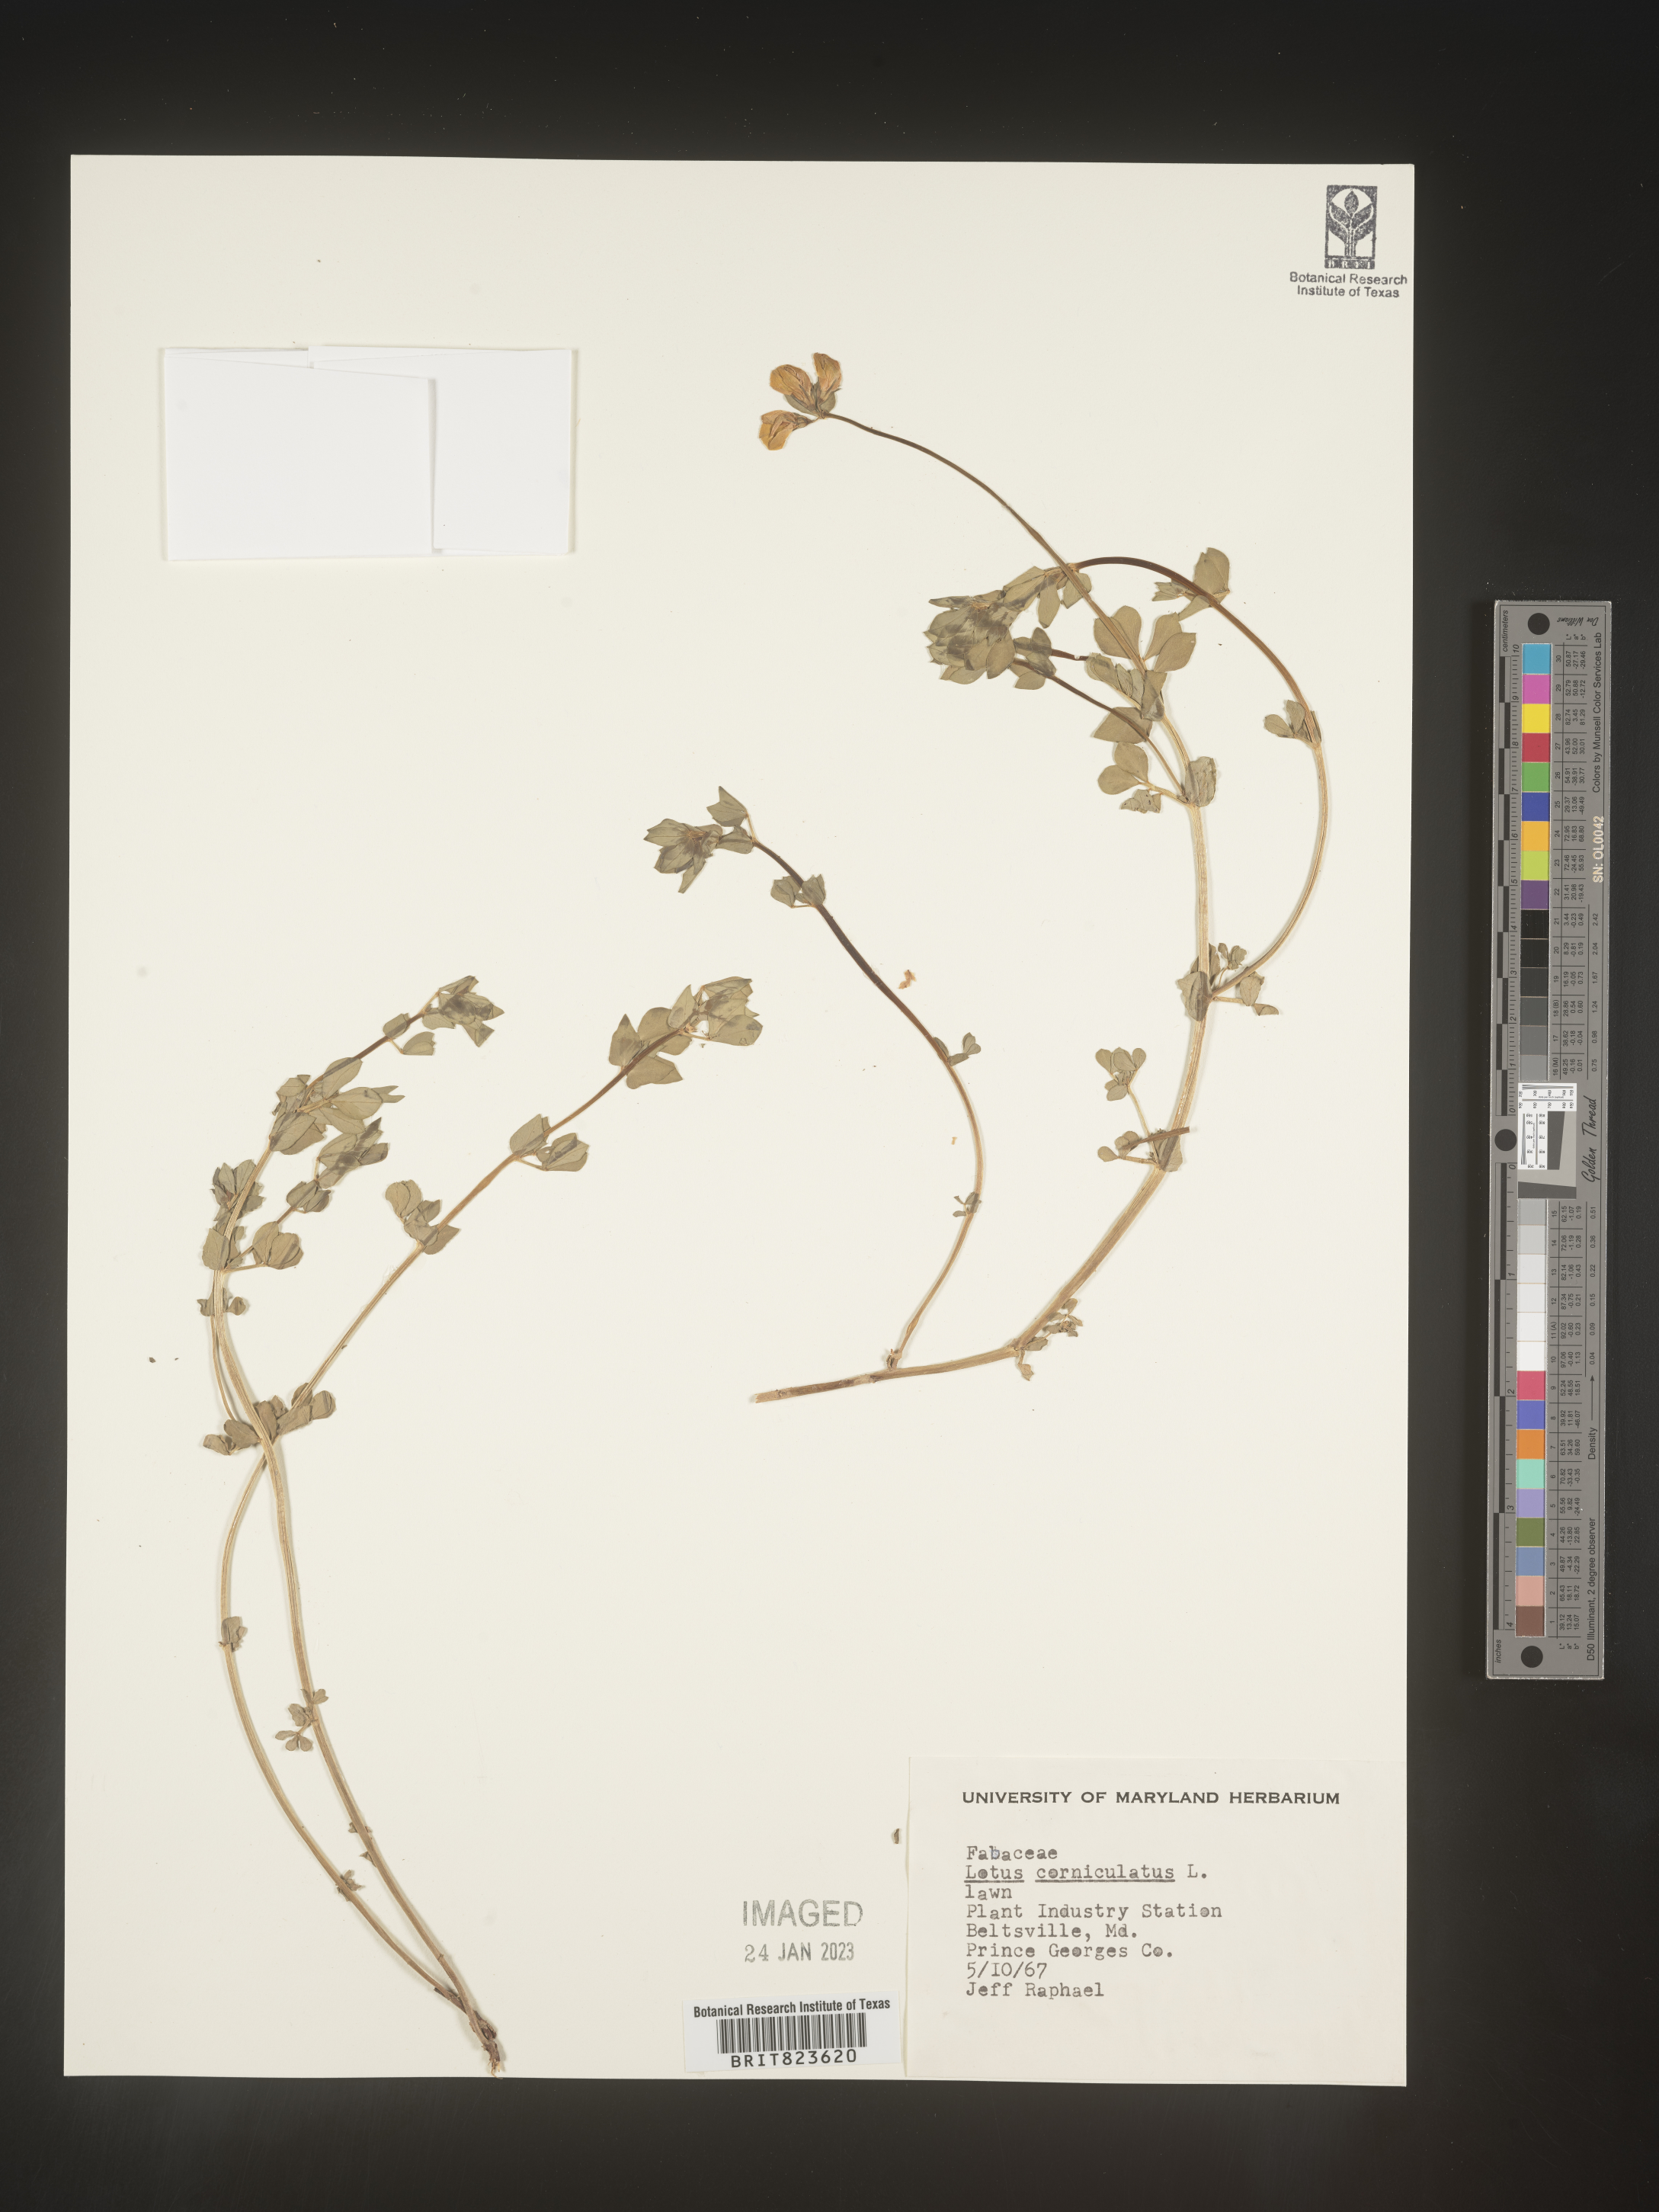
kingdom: Plantae
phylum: Tracheophyta
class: Magnoliopsida
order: Fabales
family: Fabaceae
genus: Lotus
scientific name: Lotus corniculatus
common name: Common bird's-foot-trefoil
